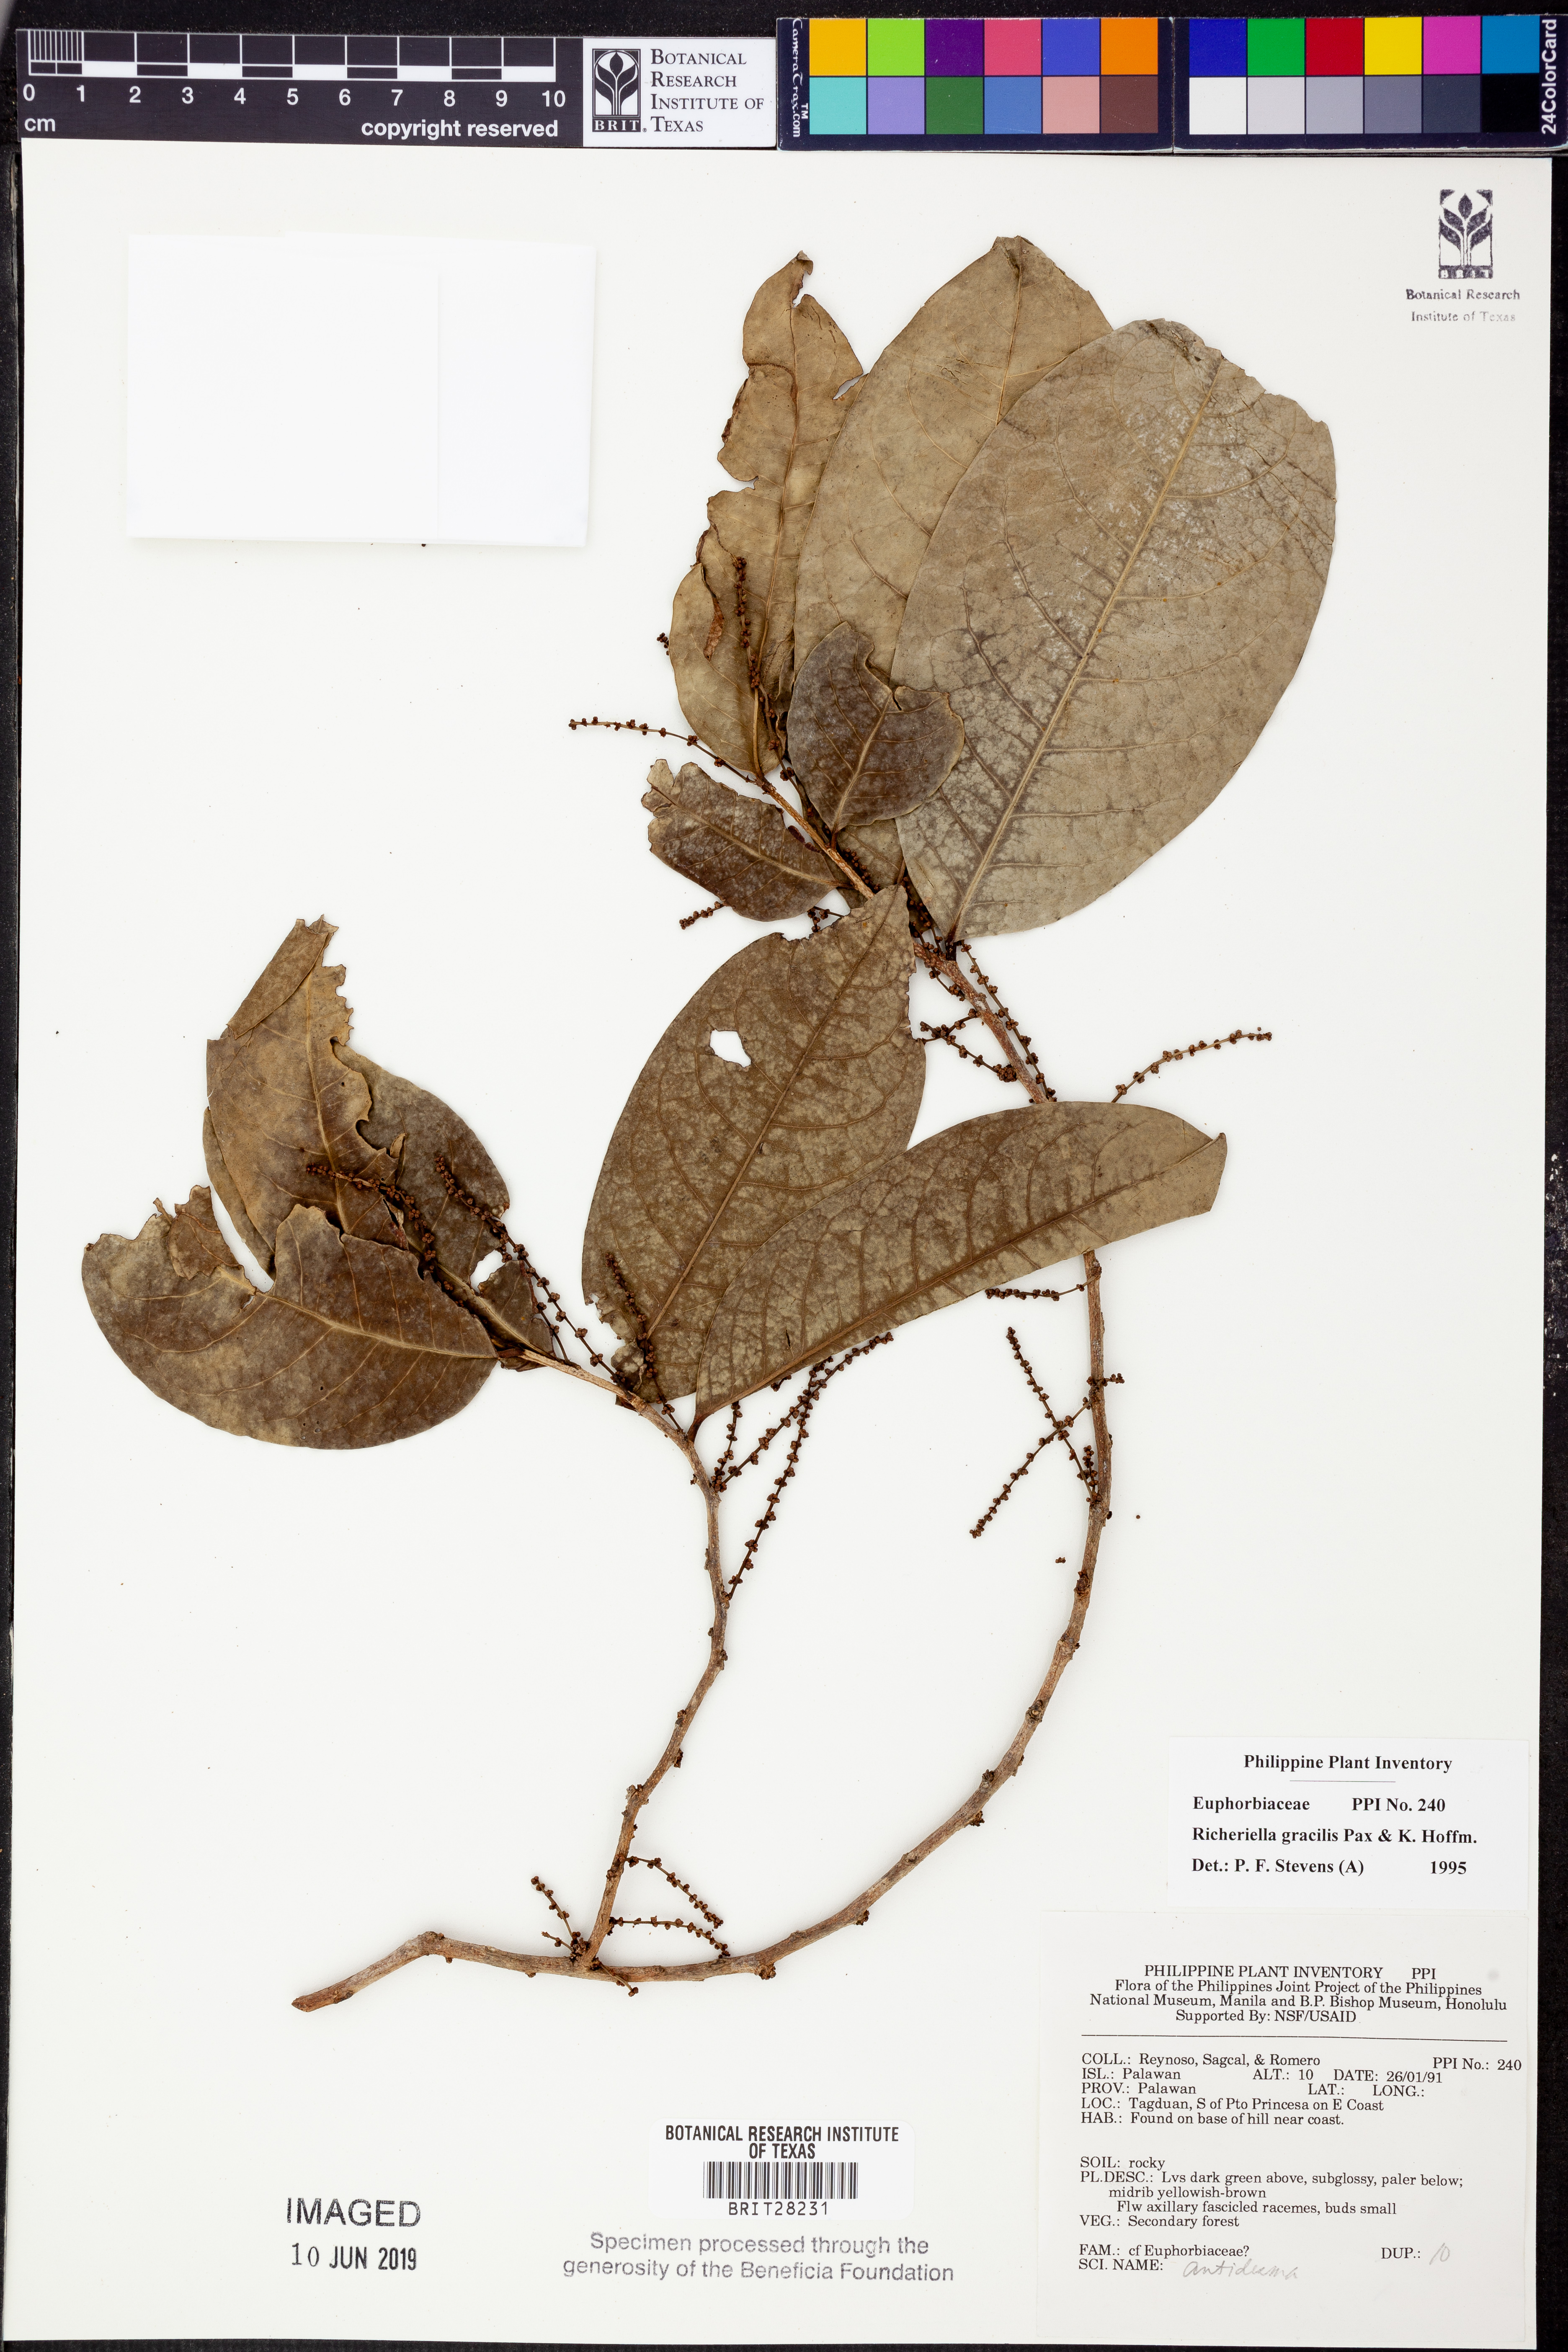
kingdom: Plantae
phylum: Tracheophyta
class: Magnoliopsida
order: Malpighiales
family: Phyllanthaceae
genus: Flueggea
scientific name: Flueggea gracilis
